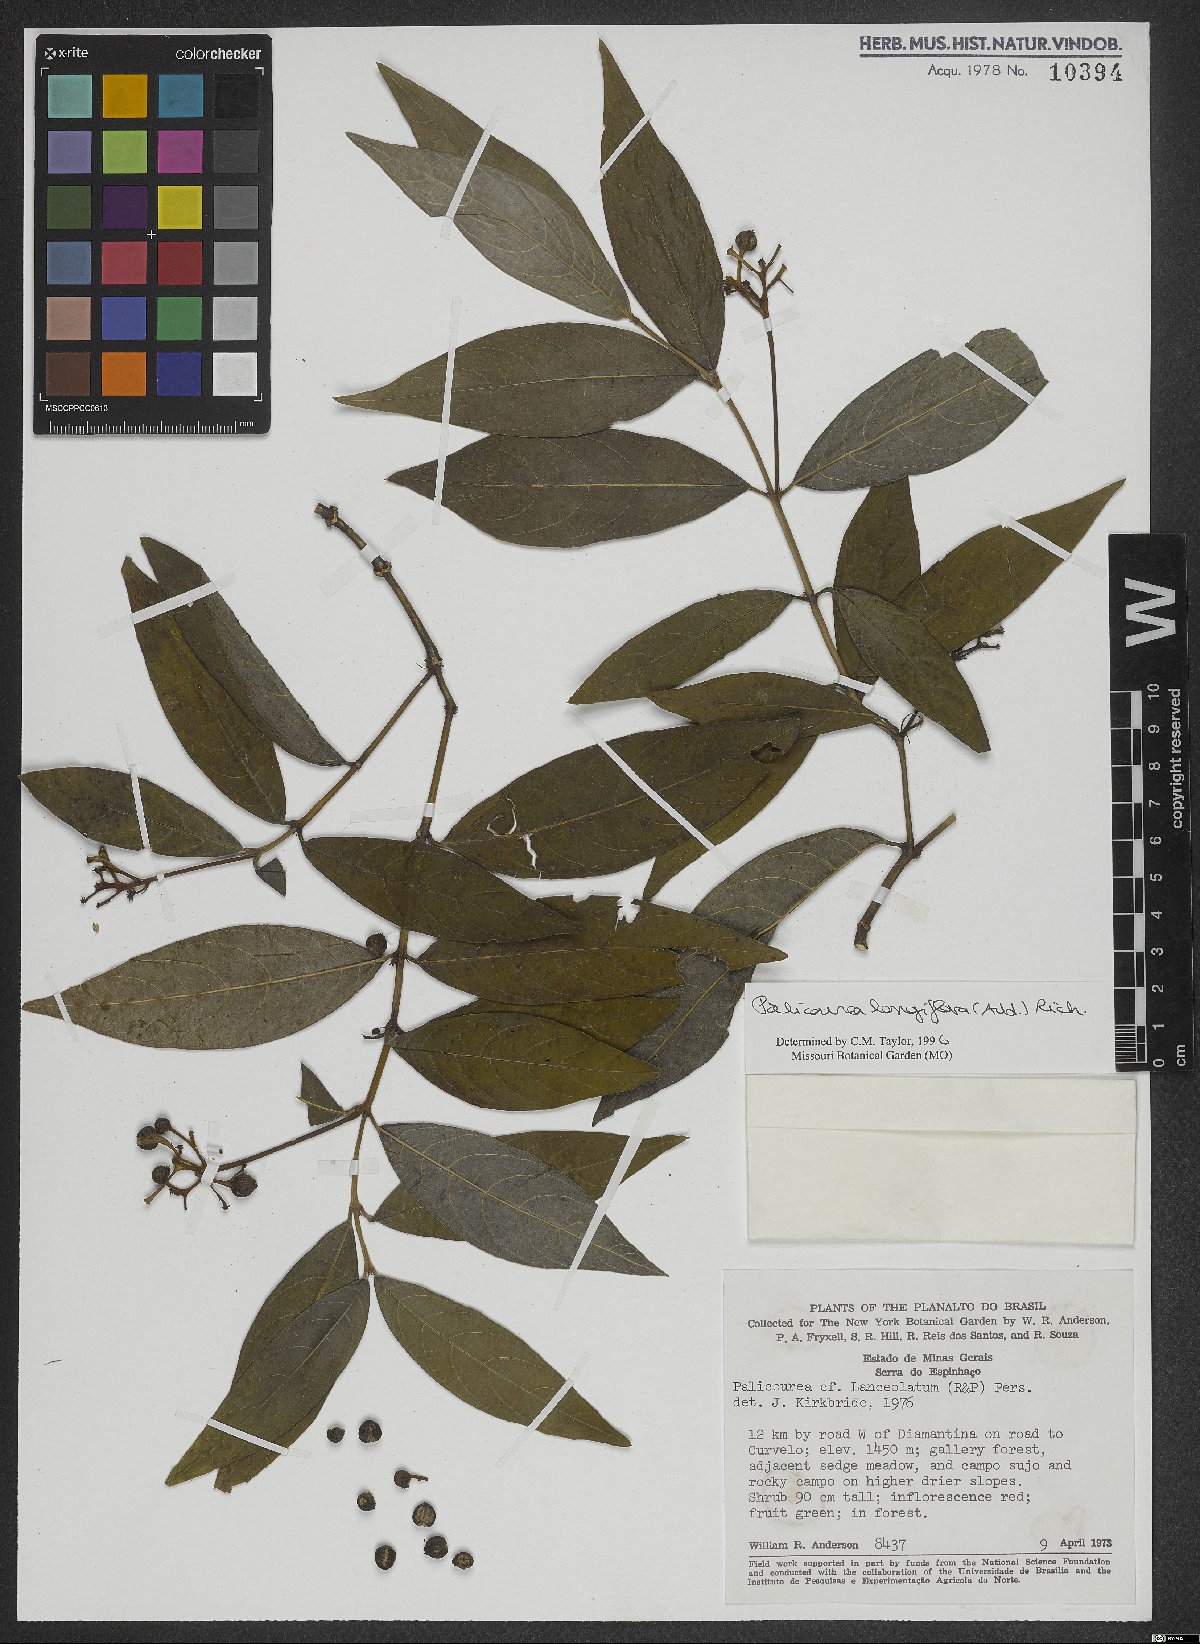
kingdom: Plantae
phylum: Tracheophyta
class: Magnoliopsida
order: Gentianales
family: Rubiaceae
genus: Palicourea
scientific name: Palicourea longiflora
